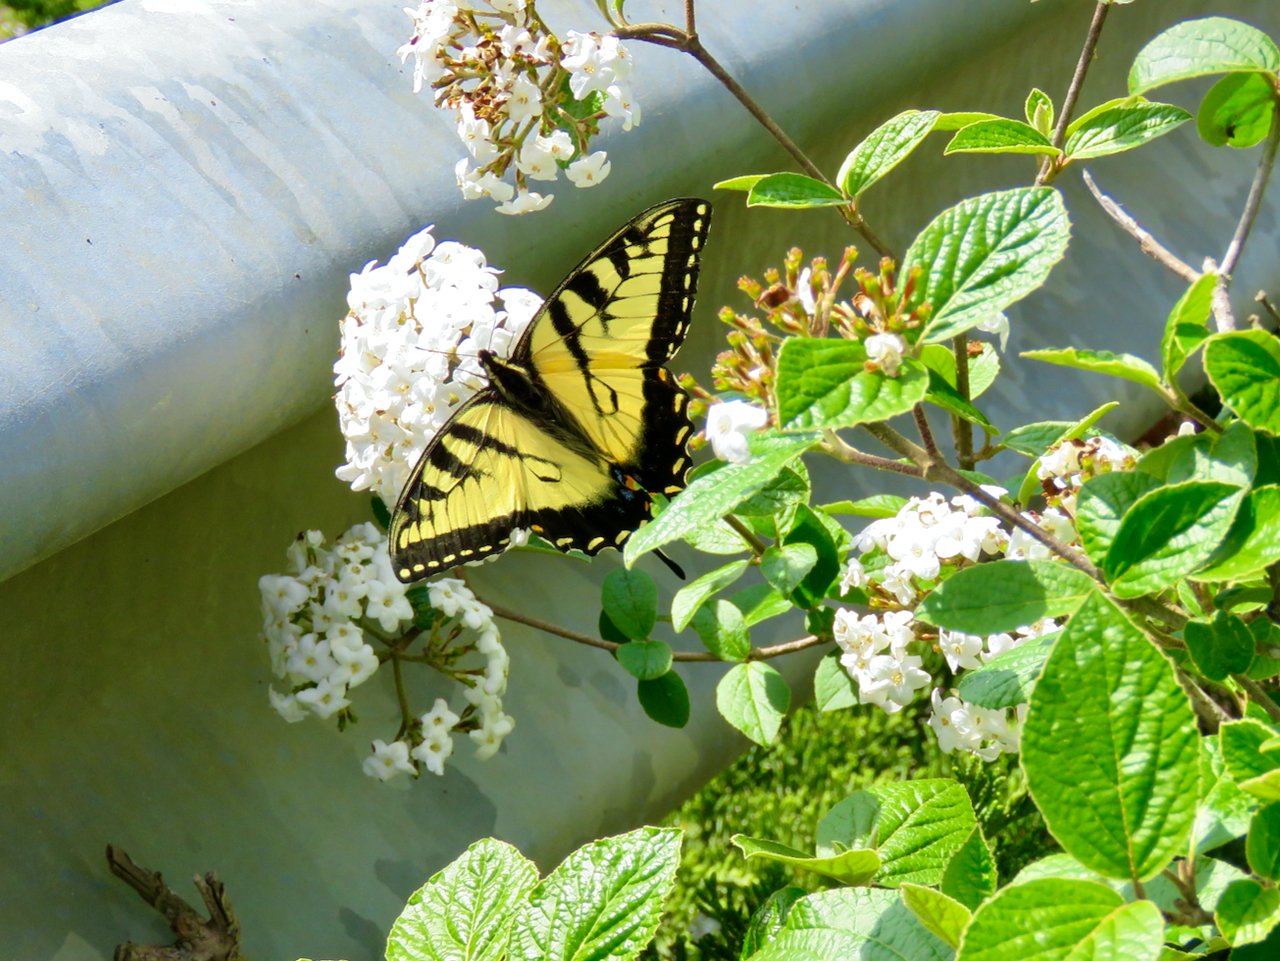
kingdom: Animalia
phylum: Arthropoda
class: Insecta
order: Lepidoptera
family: Papilionidae
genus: Pterourus
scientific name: Pterourus glaucus
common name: Eastern Tiger Swallowtail
